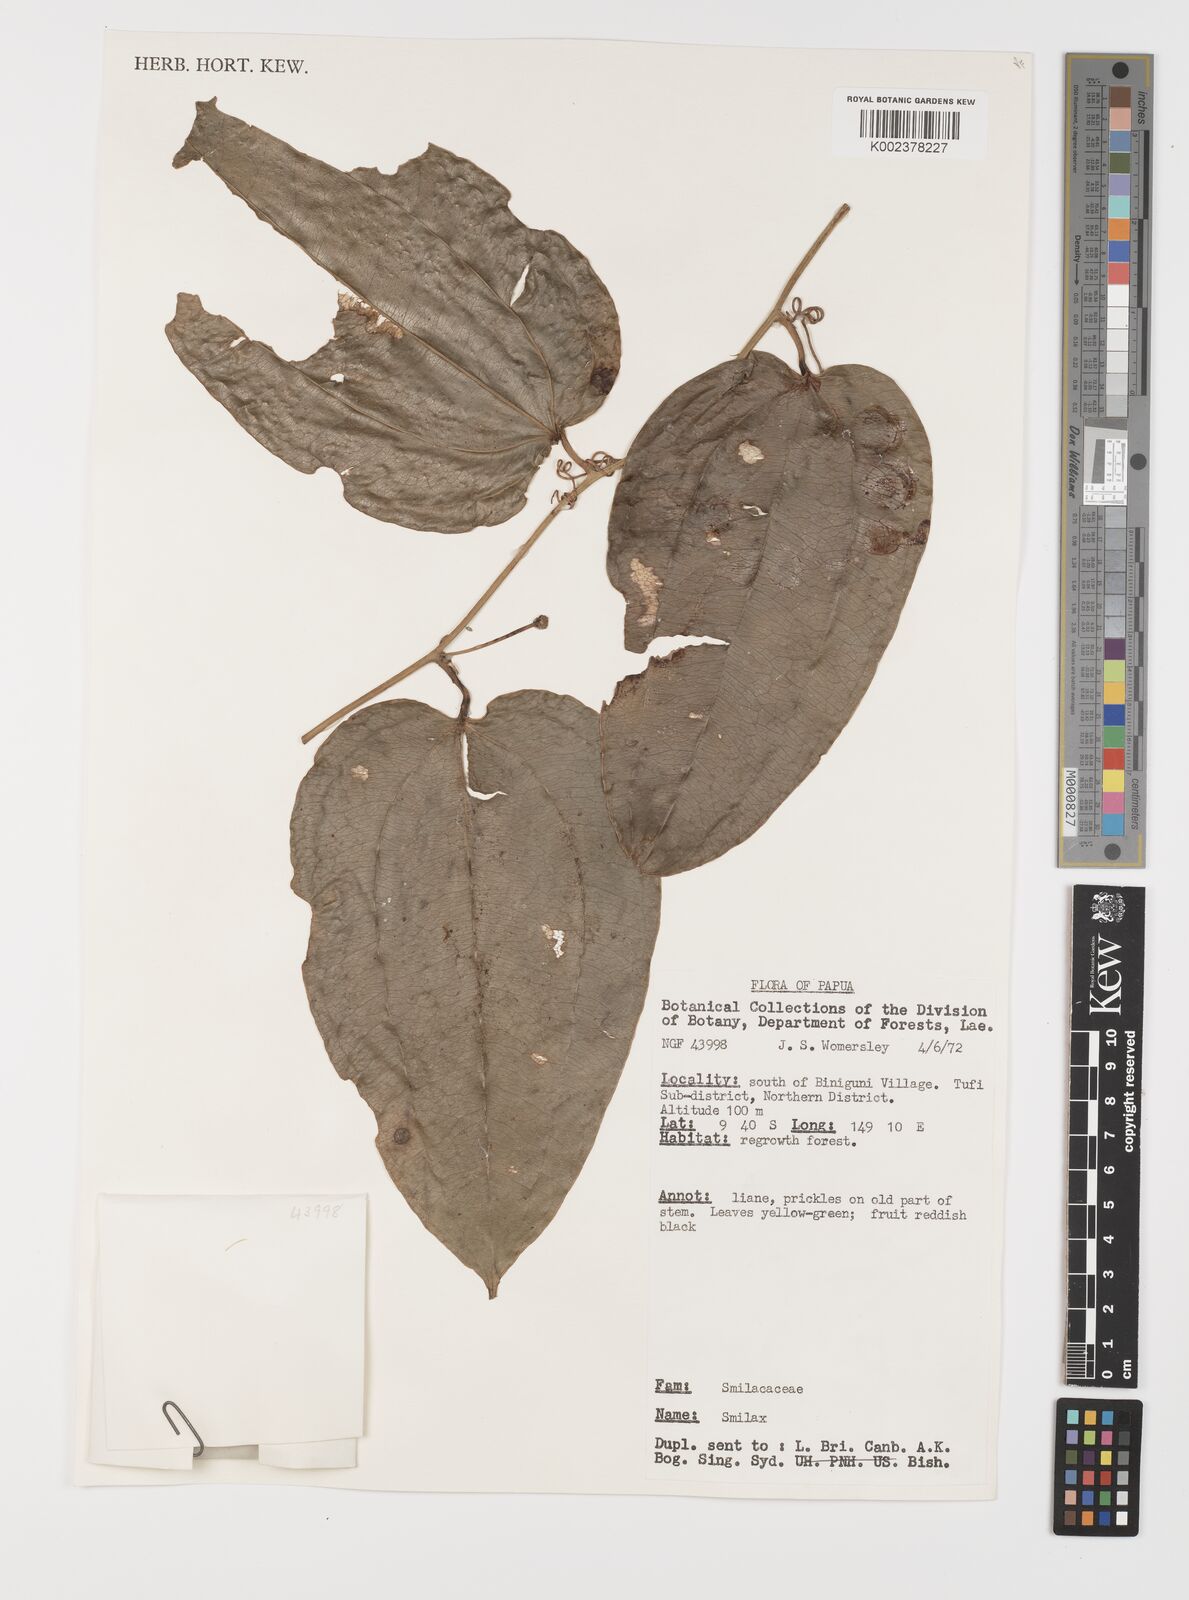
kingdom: Plantae
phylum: Tracheophyta
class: Liliopsida
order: Liliales
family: Smilacaceae
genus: Smilax
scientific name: Smilax
